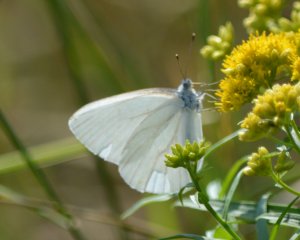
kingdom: Animalia
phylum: Arthropoda
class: Insecta
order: Lepidoptera
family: Pieridae
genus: Pieris
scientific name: Pieris oleracea
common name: Mustard White
